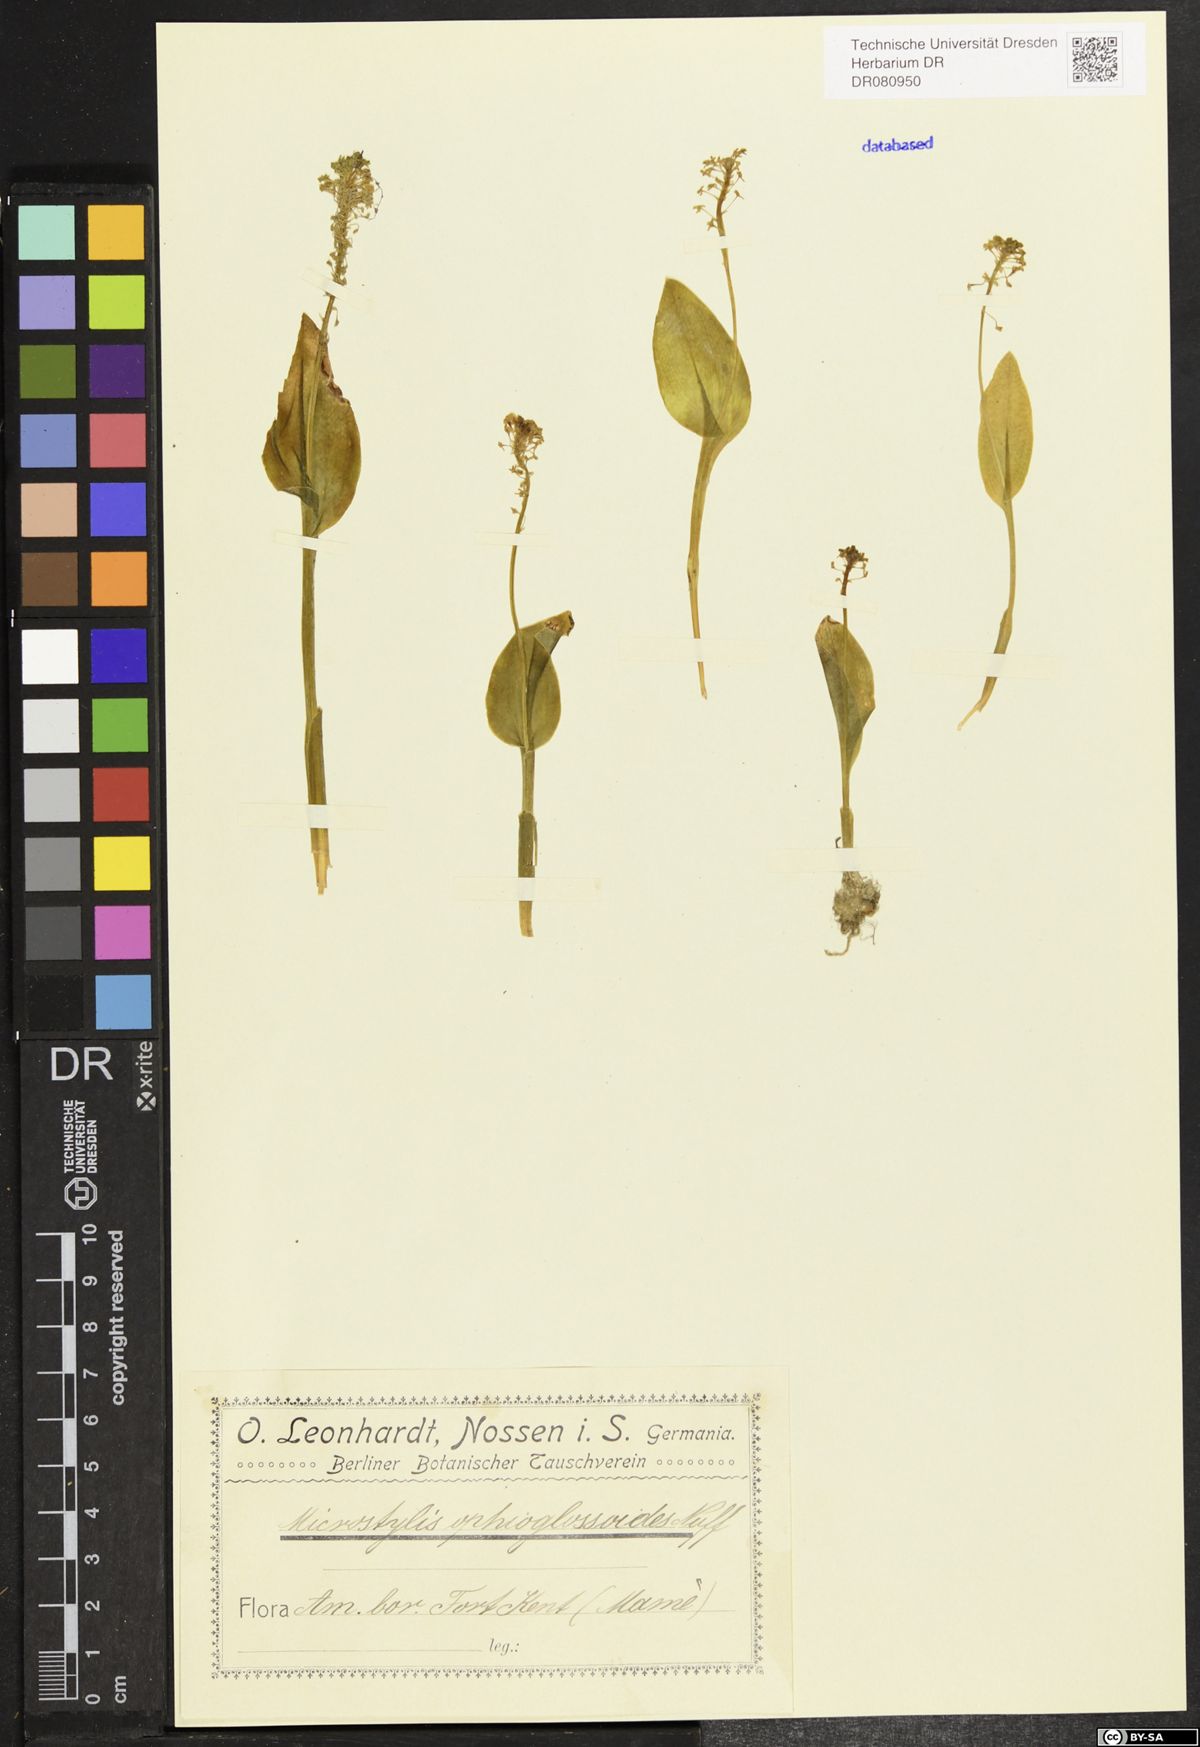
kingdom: Plantae
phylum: Tracheophyta
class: Liliopsida
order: Asparagales
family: Orchidaceae
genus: Neottia
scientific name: Neottia nidus-avis
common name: Bird's-nest orchid
